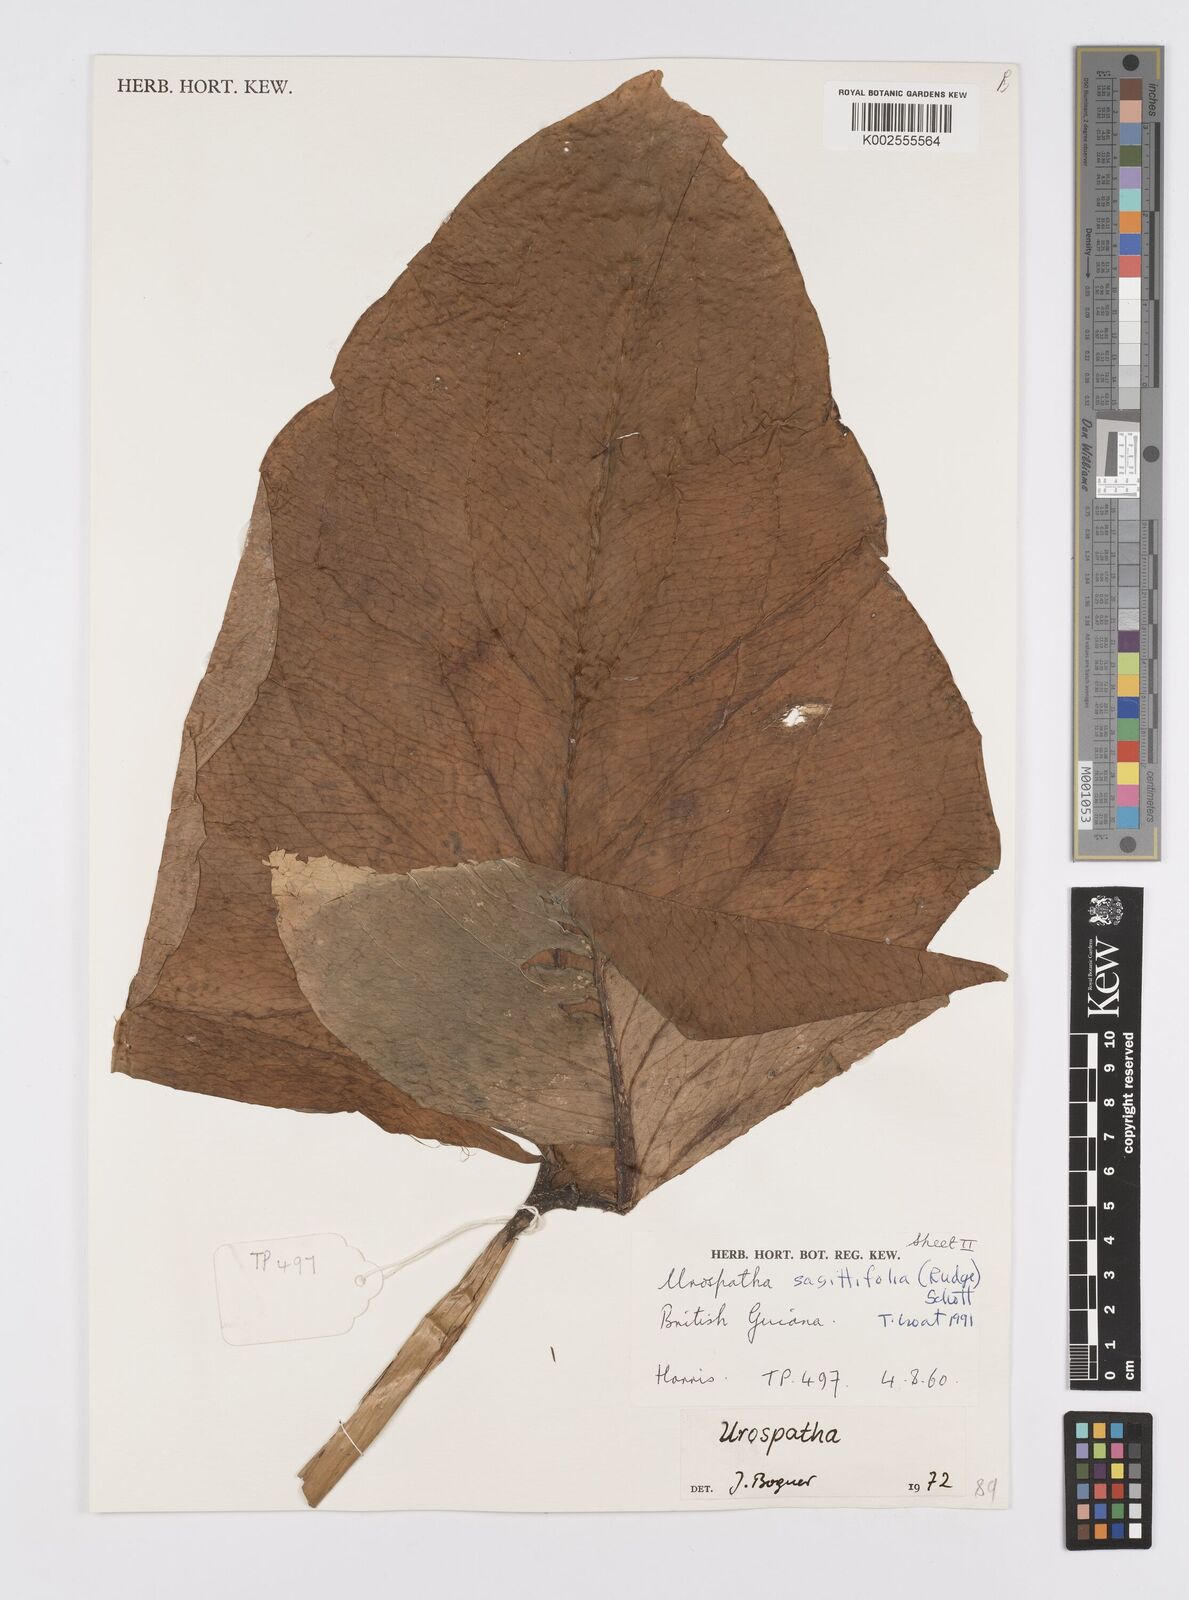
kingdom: Plantae
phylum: Tracheophyta
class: Liliopsida
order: Alismatales
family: Araceae
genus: Urospatha
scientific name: Urospatha sagittifolia
